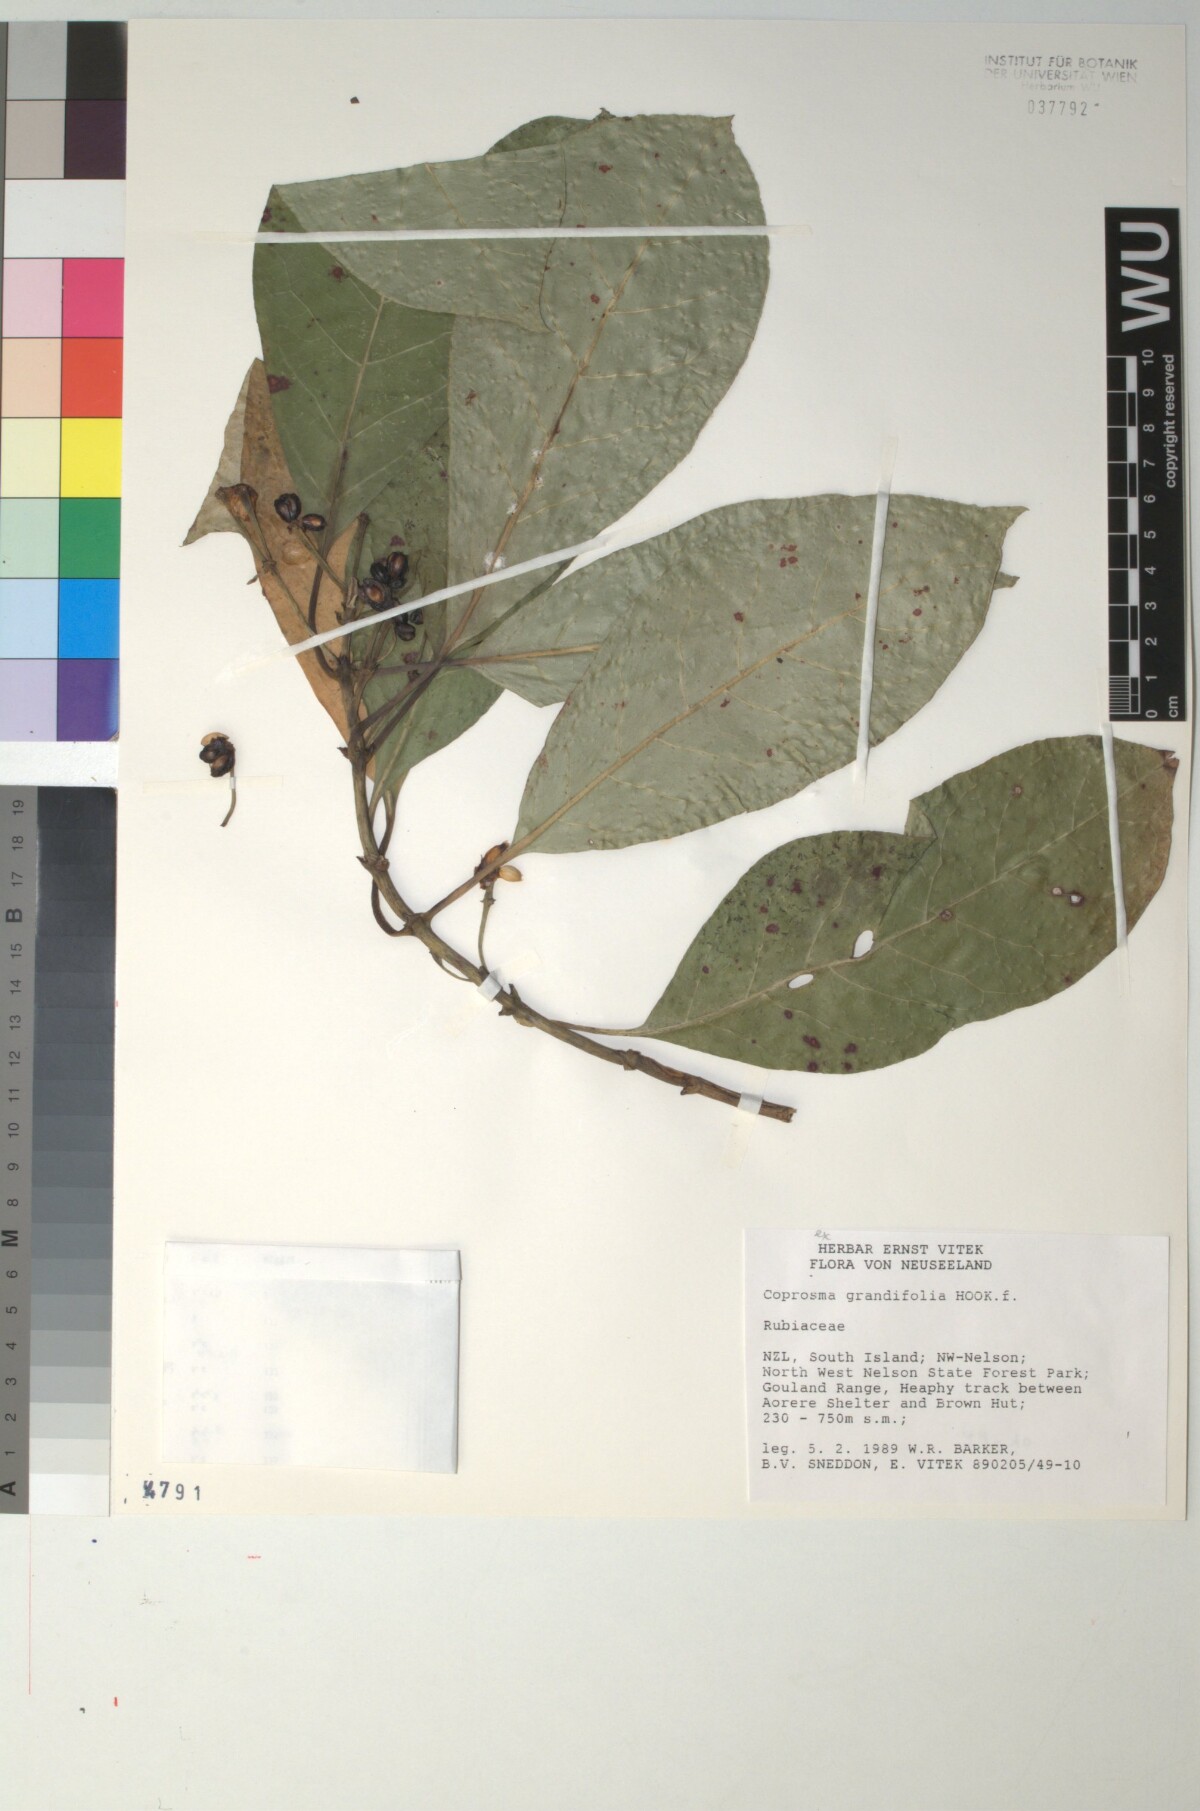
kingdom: Plantae
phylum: Tracheophyta
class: Magnoliopsida
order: Gentianales
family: Rubiaceae
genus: Coprosma
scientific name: Coprosma lucida
